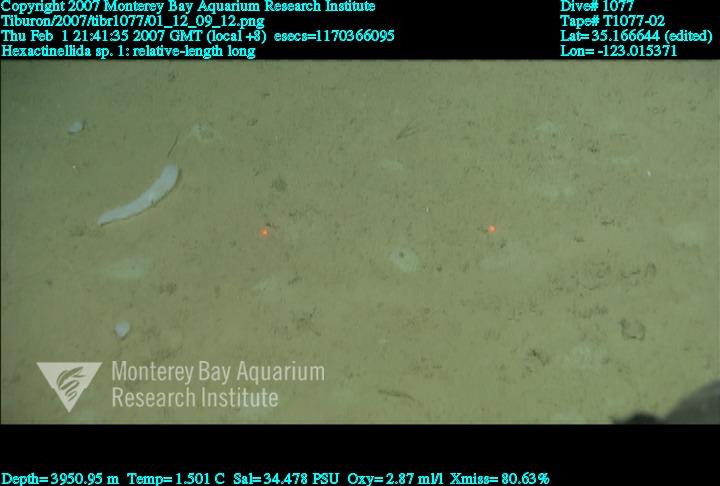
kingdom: Animalia
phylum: Porifera
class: Hexactinellida
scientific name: Hexactinellida
